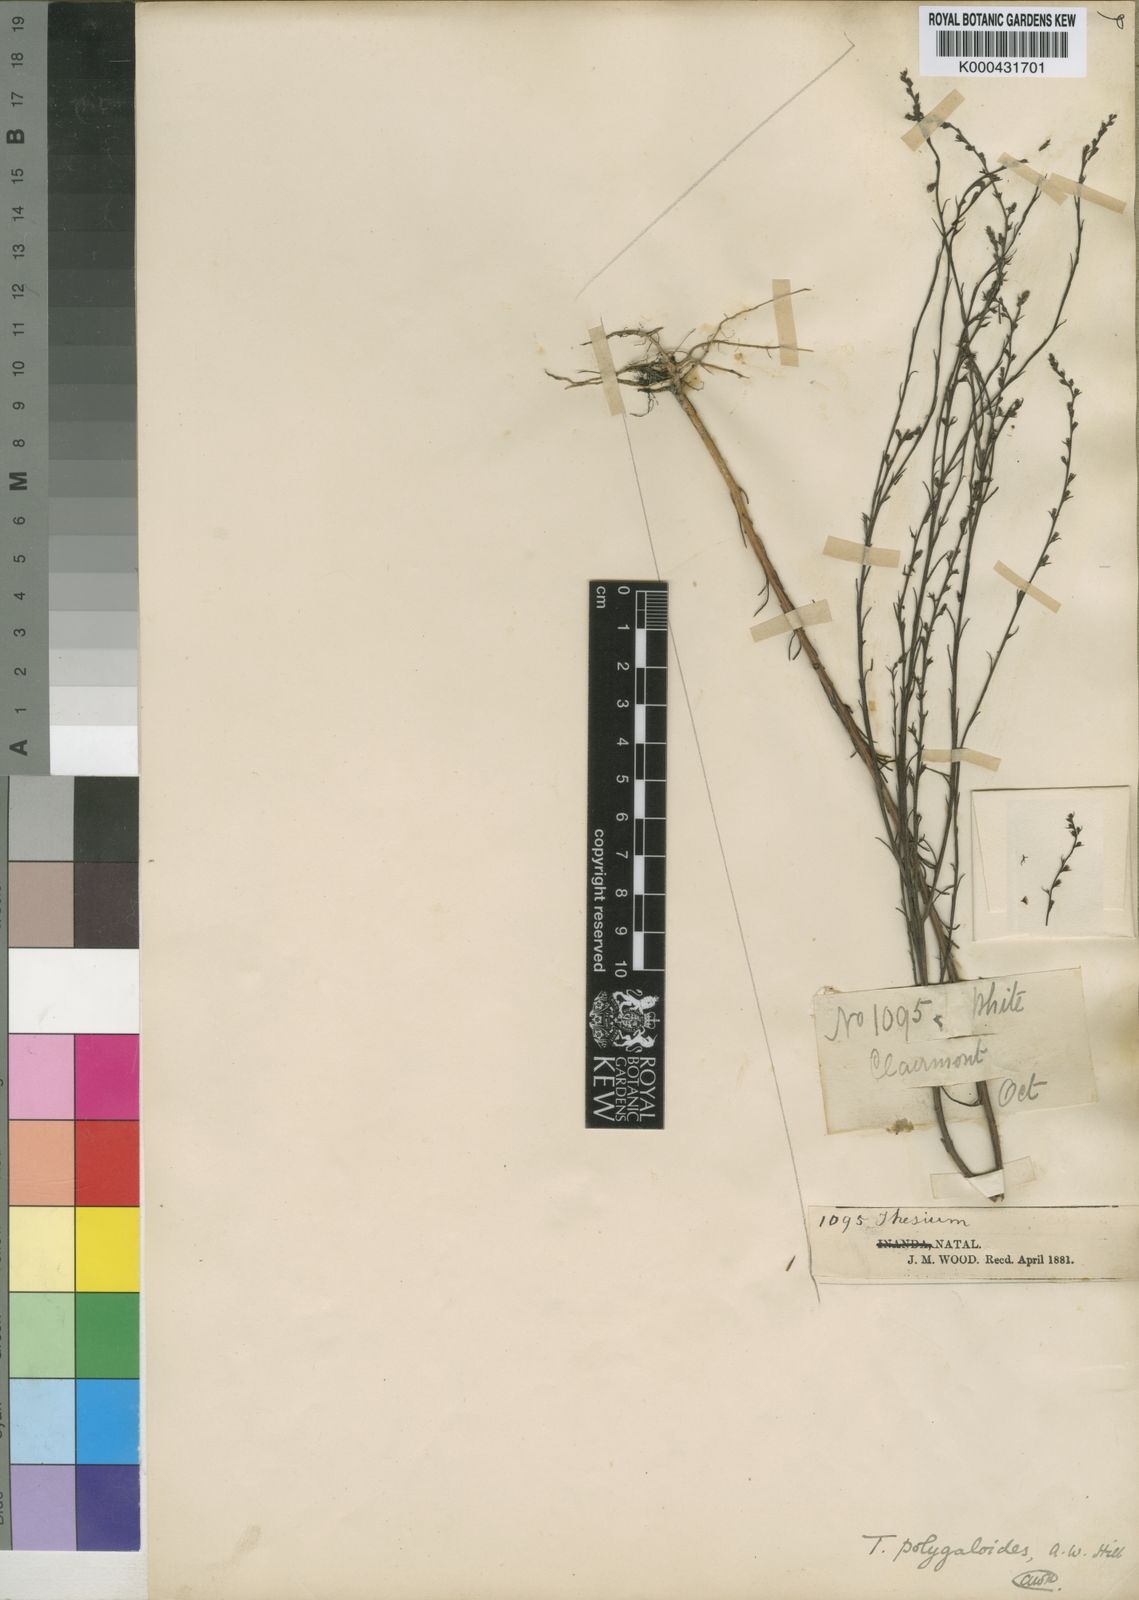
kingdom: Plantae
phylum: Tracheophyta
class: Magnoliopsida
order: Santalales
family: Thesiaceae
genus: Thesium
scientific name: Thesium polygaloides
